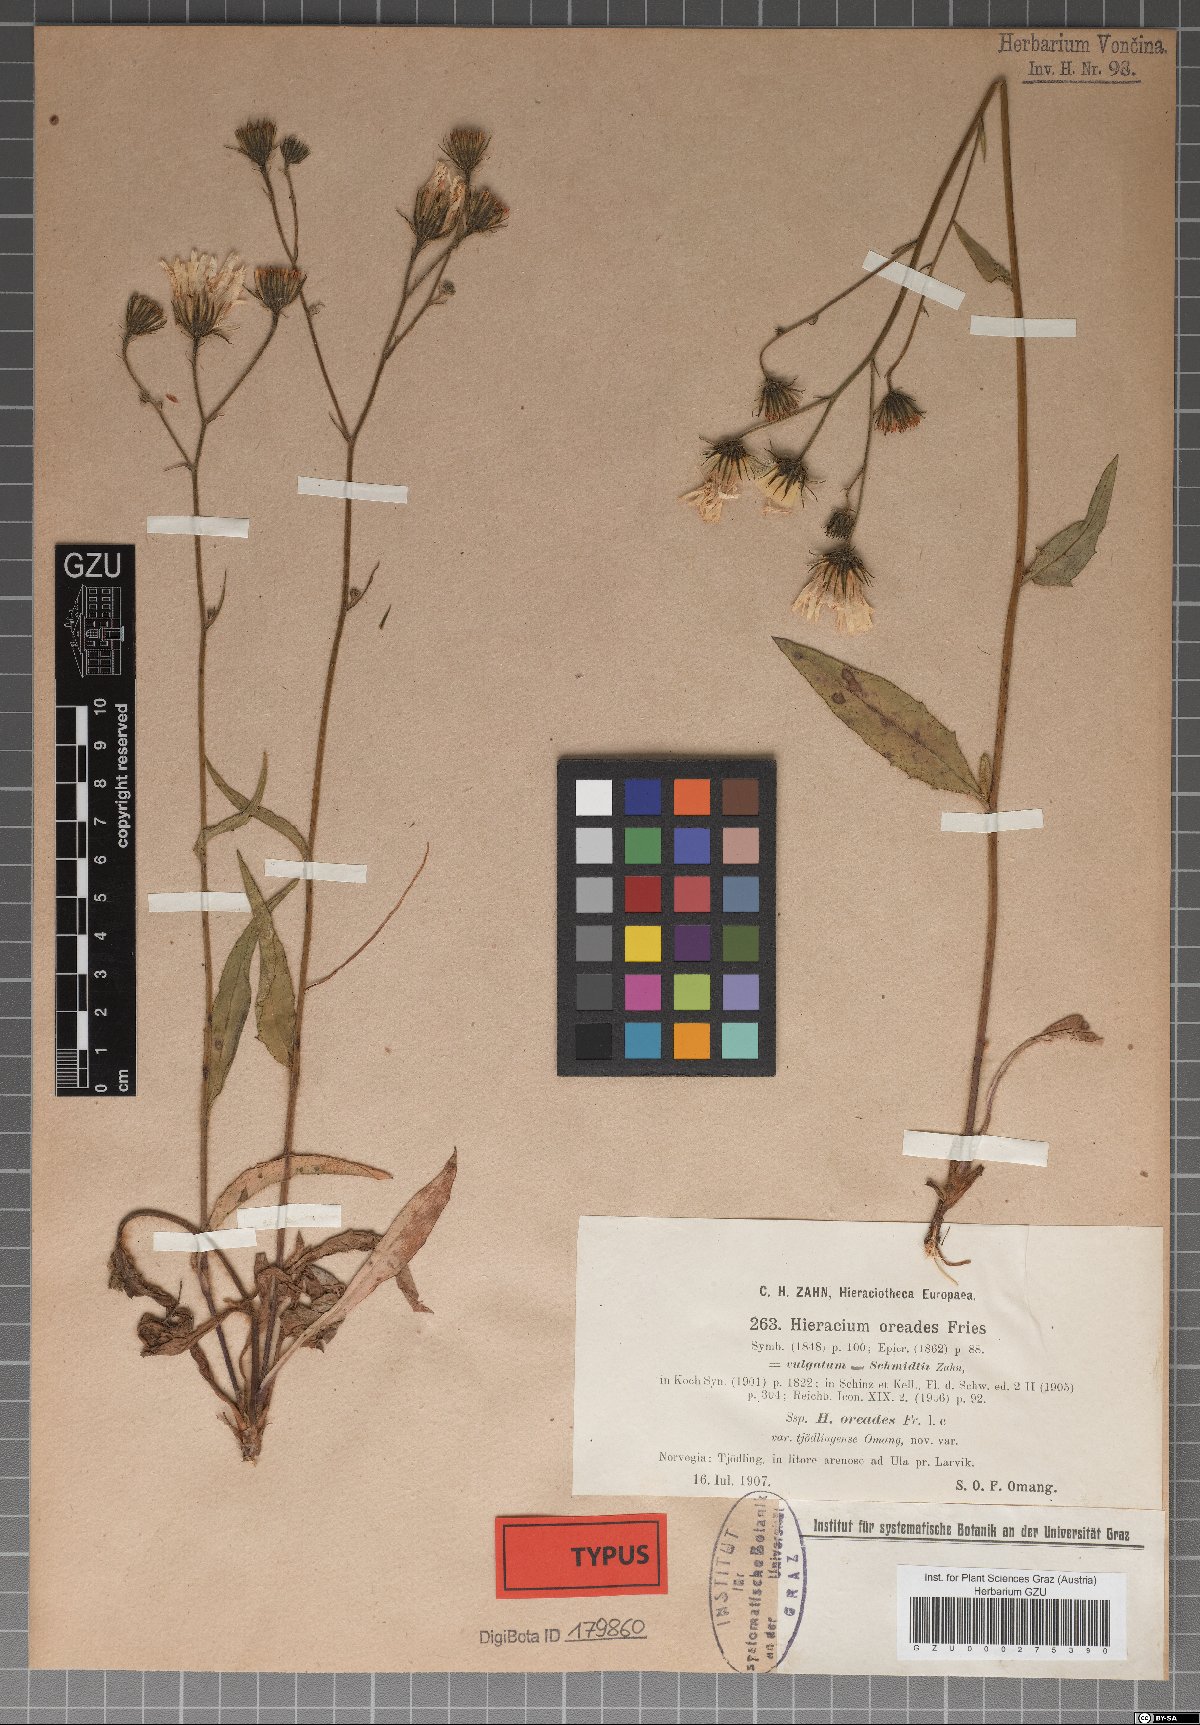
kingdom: Plantae
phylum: Tracheophyta
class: Magnoliopsida
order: Asterales
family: Asteraceae
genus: Hieracium
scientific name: Hieracium onosmoides
